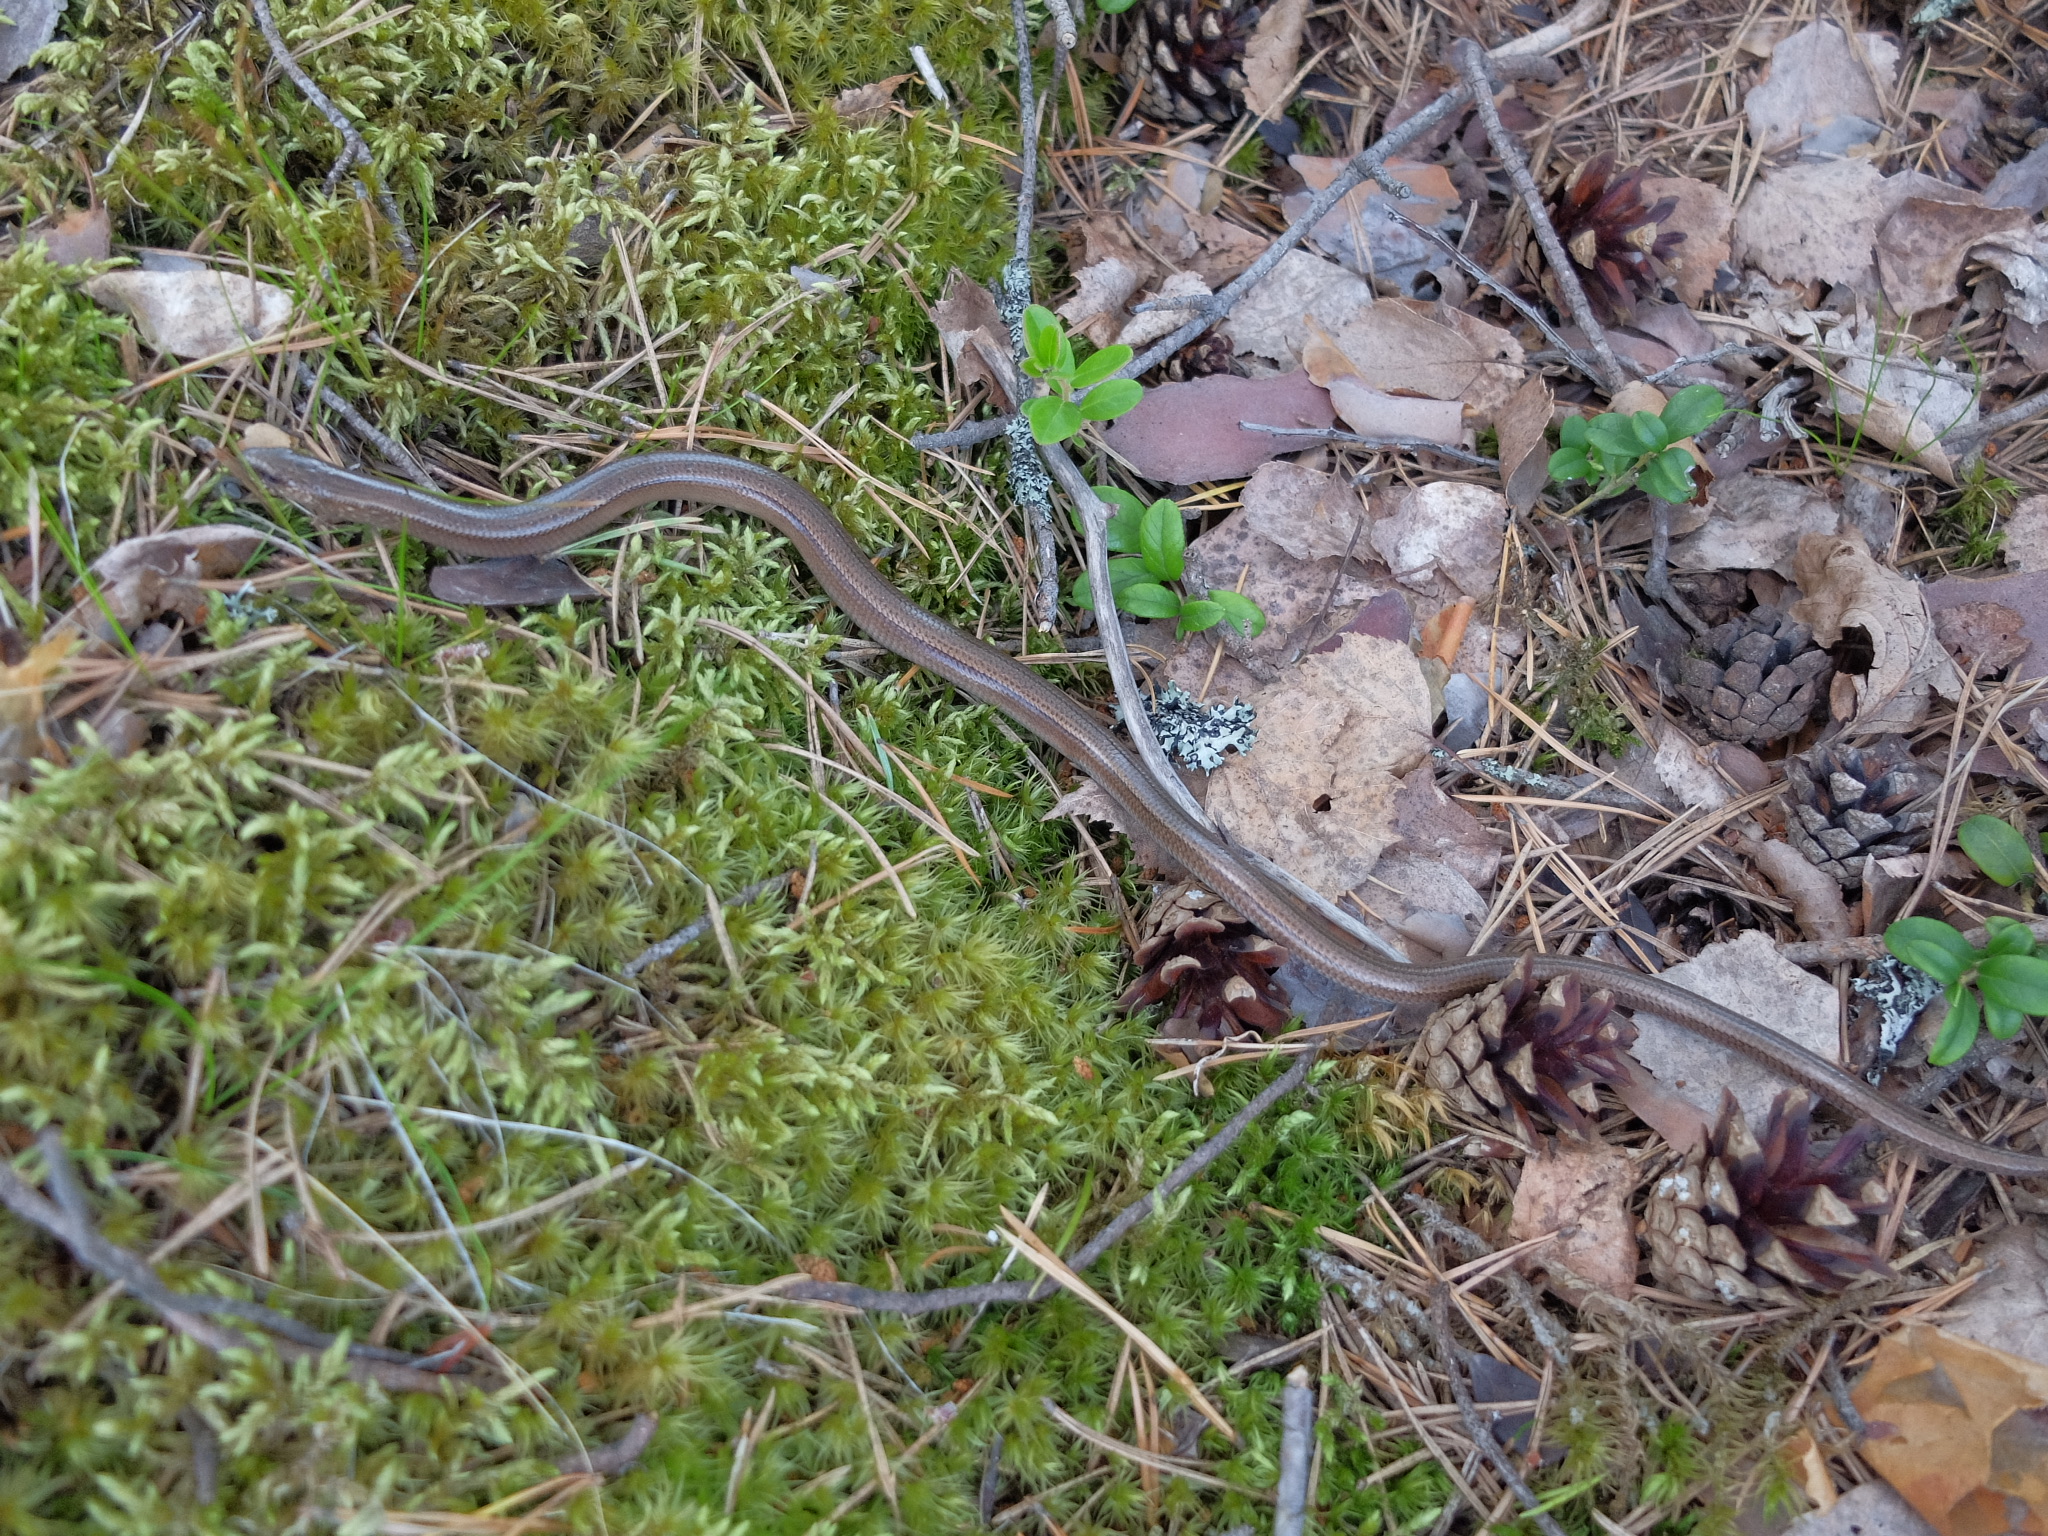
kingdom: Animalia
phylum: Chordata
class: Squamata
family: Anguidae
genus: Anguis
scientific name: Anguis colchica
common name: Slow worm
